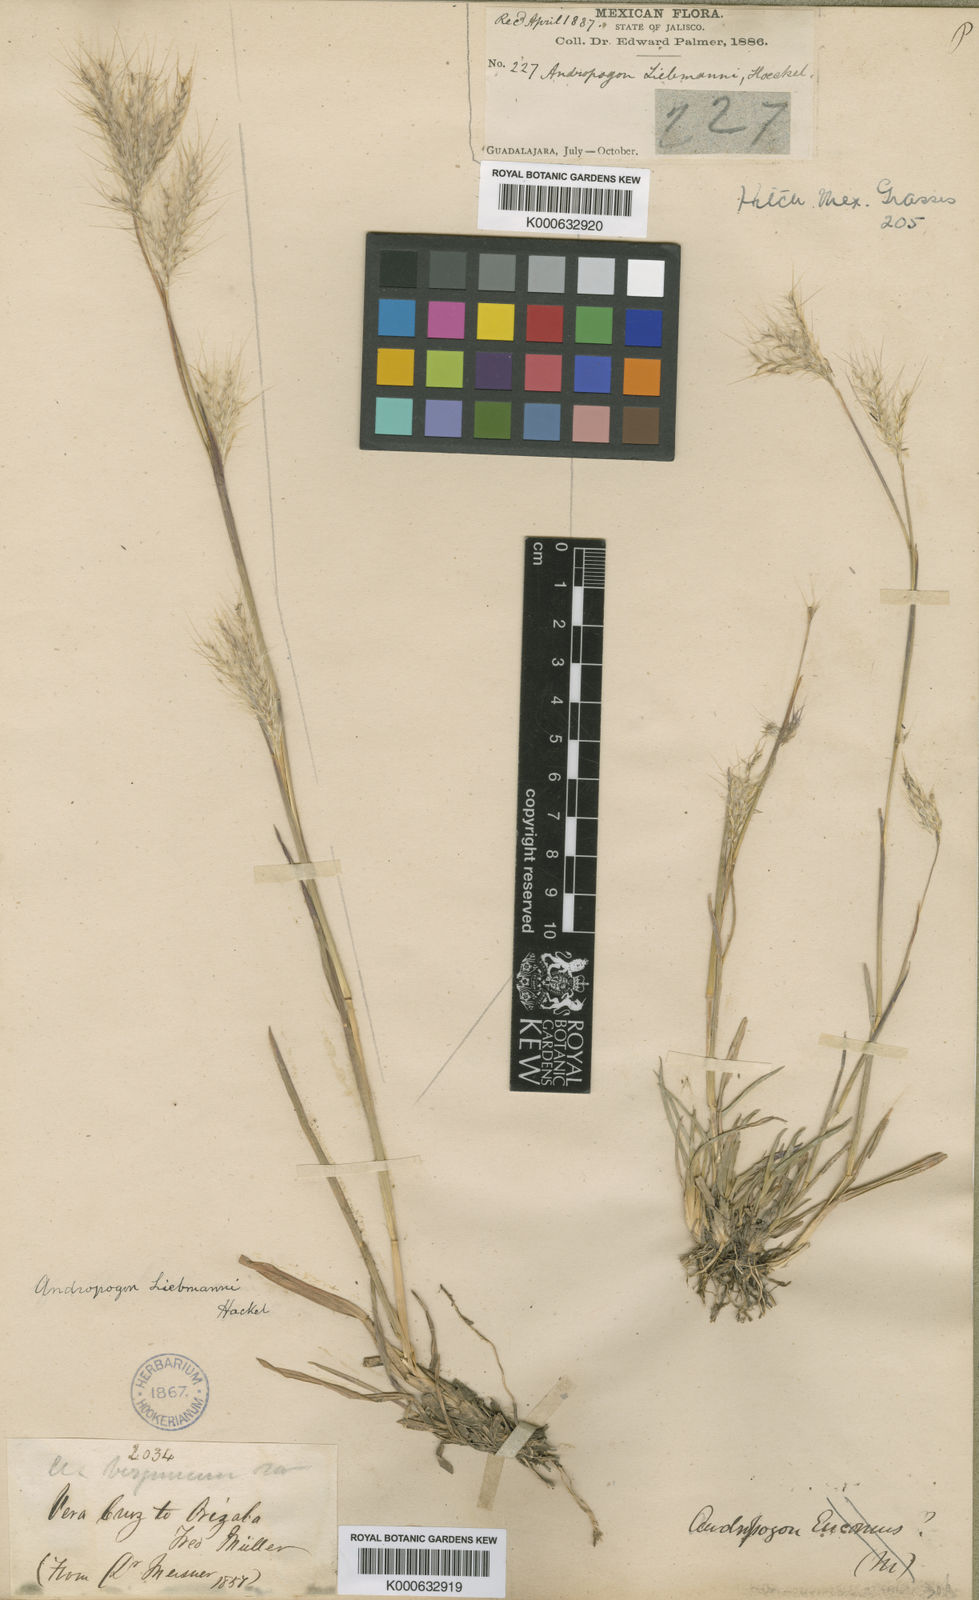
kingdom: Plantae
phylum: Tracheophyta
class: Liliopsida
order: Poales
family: Poaceae
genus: Andropogon
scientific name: Andropogon liebmannii
